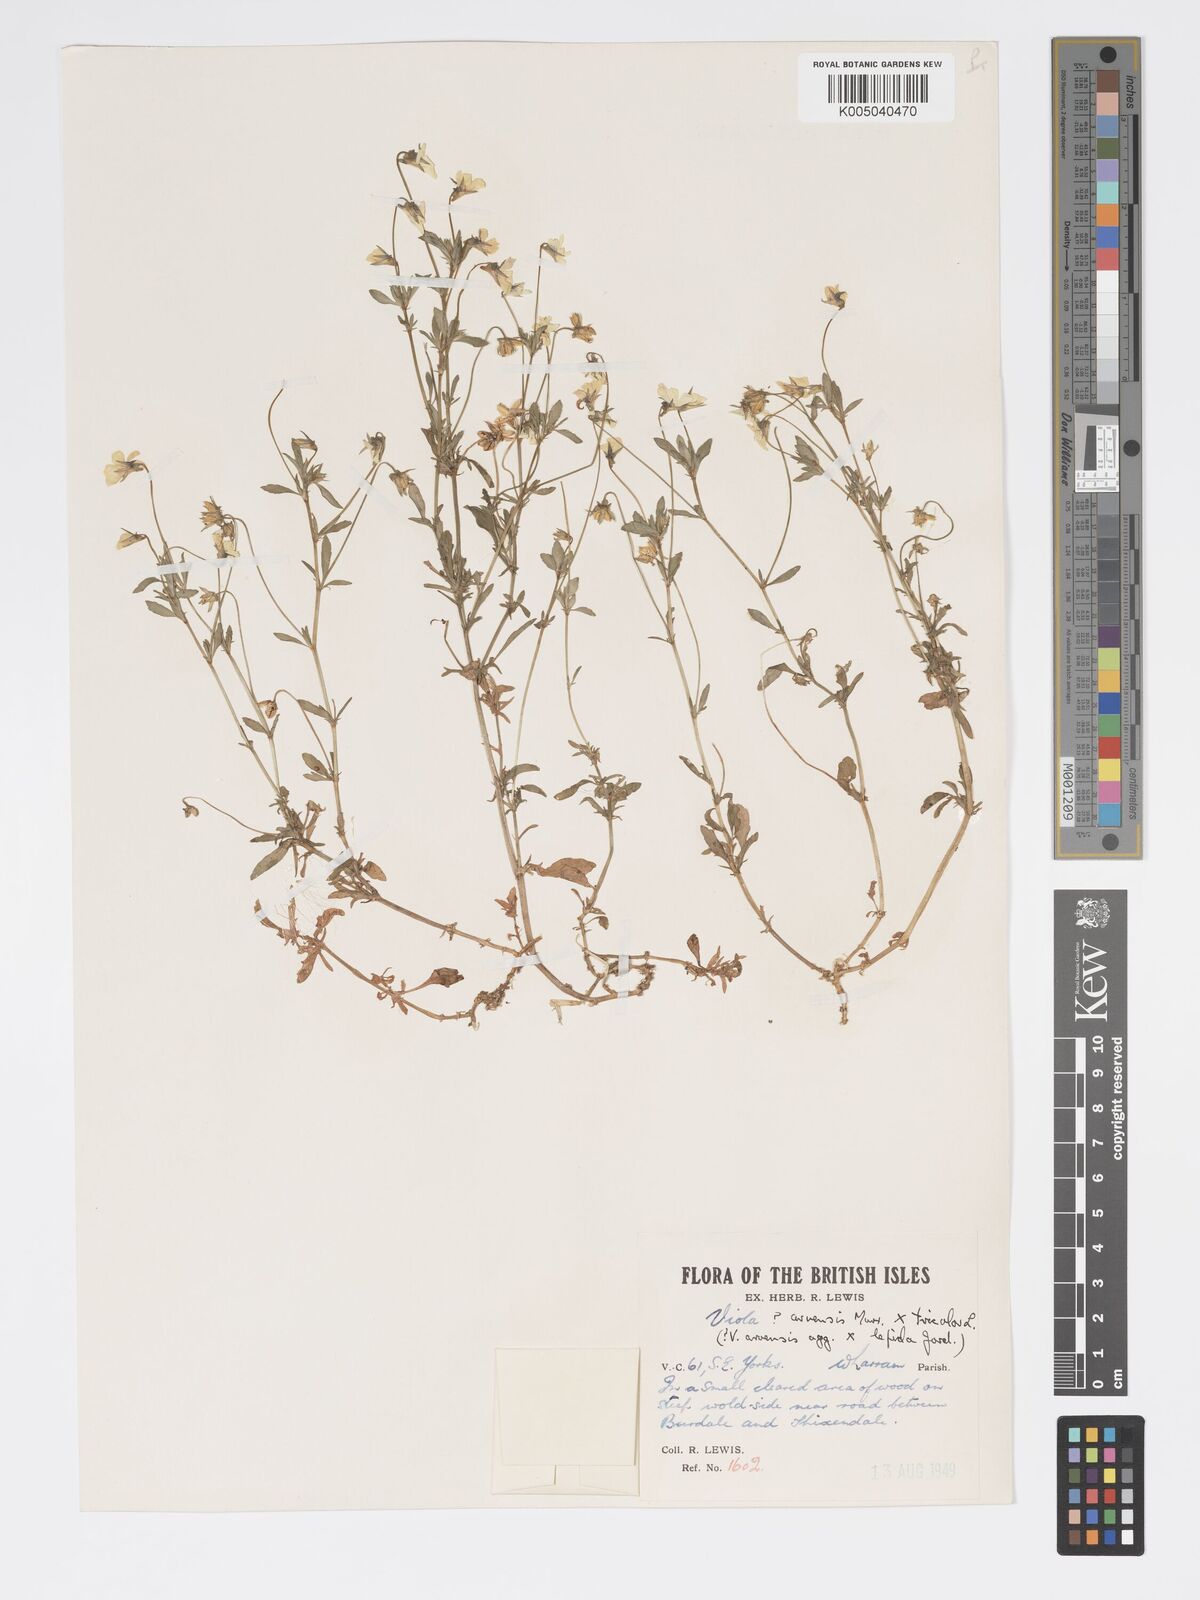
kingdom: Plantae
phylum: Tracheophyta
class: Magnoliopsida
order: Malpighiales
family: Violaceae
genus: Viola
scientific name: Viola arvensis
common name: Field pansy
